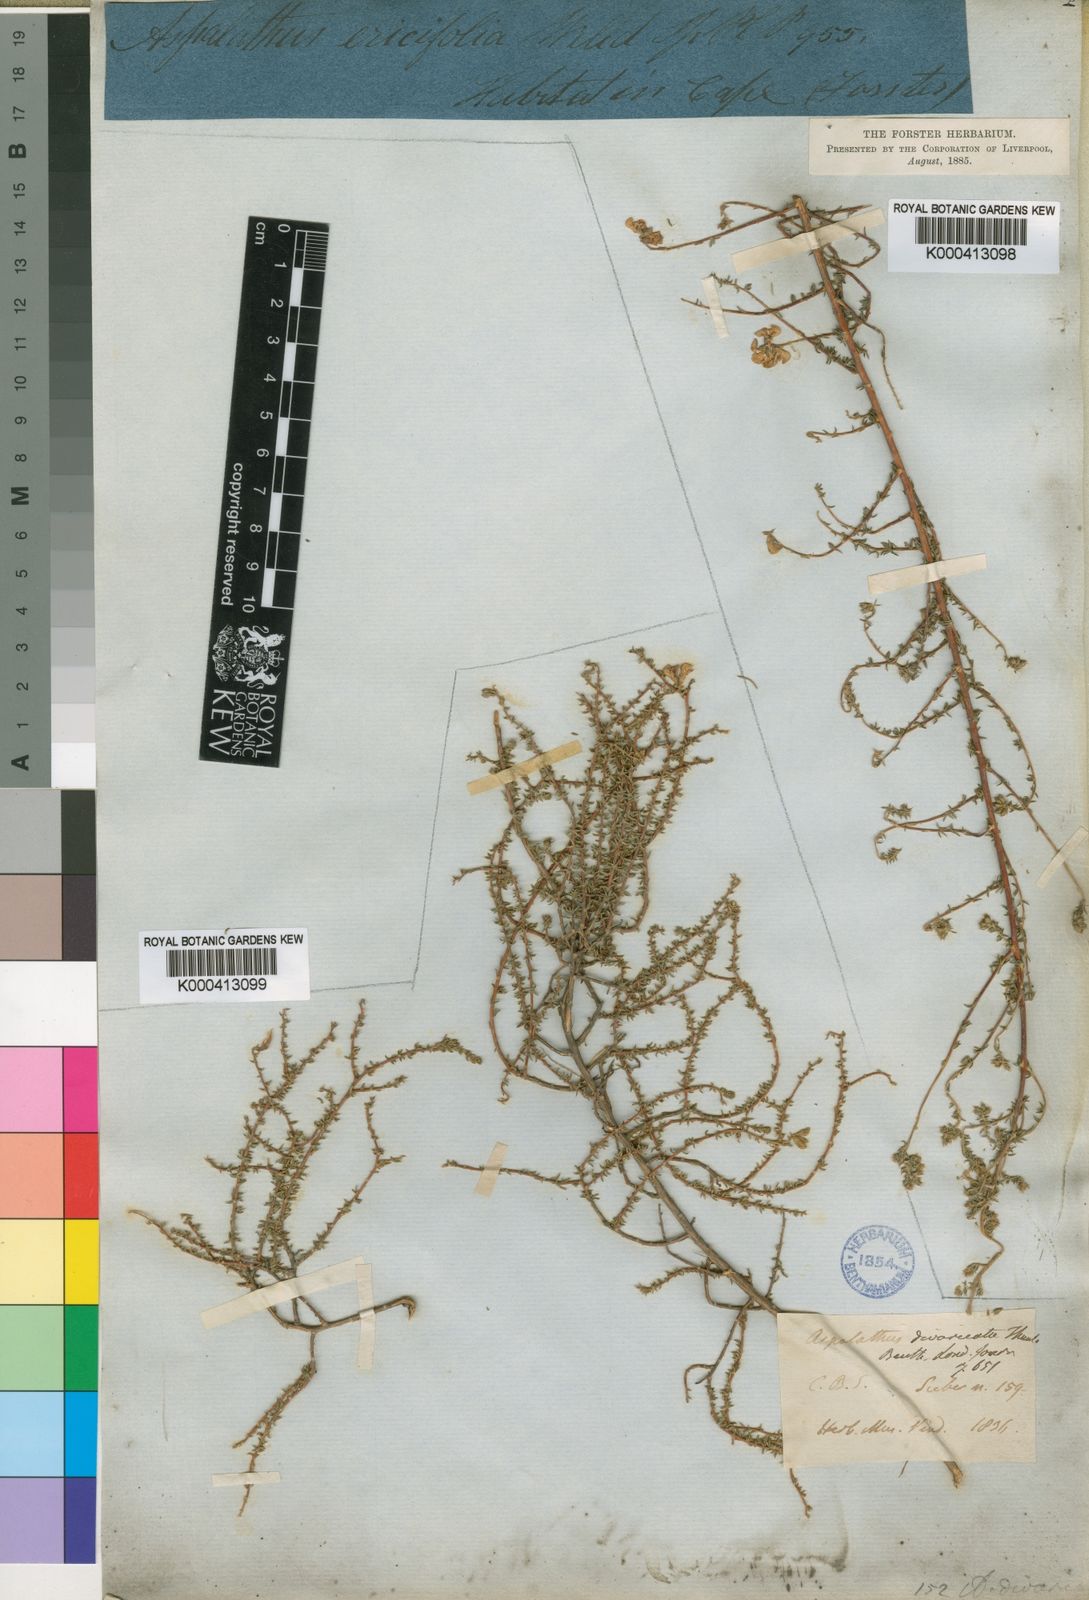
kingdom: Plantae
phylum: Tracheophyta
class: Magnoliopsida
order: Fabales
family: Fabaceae
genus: Aspalathus
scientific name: Aspalathus divaricata
